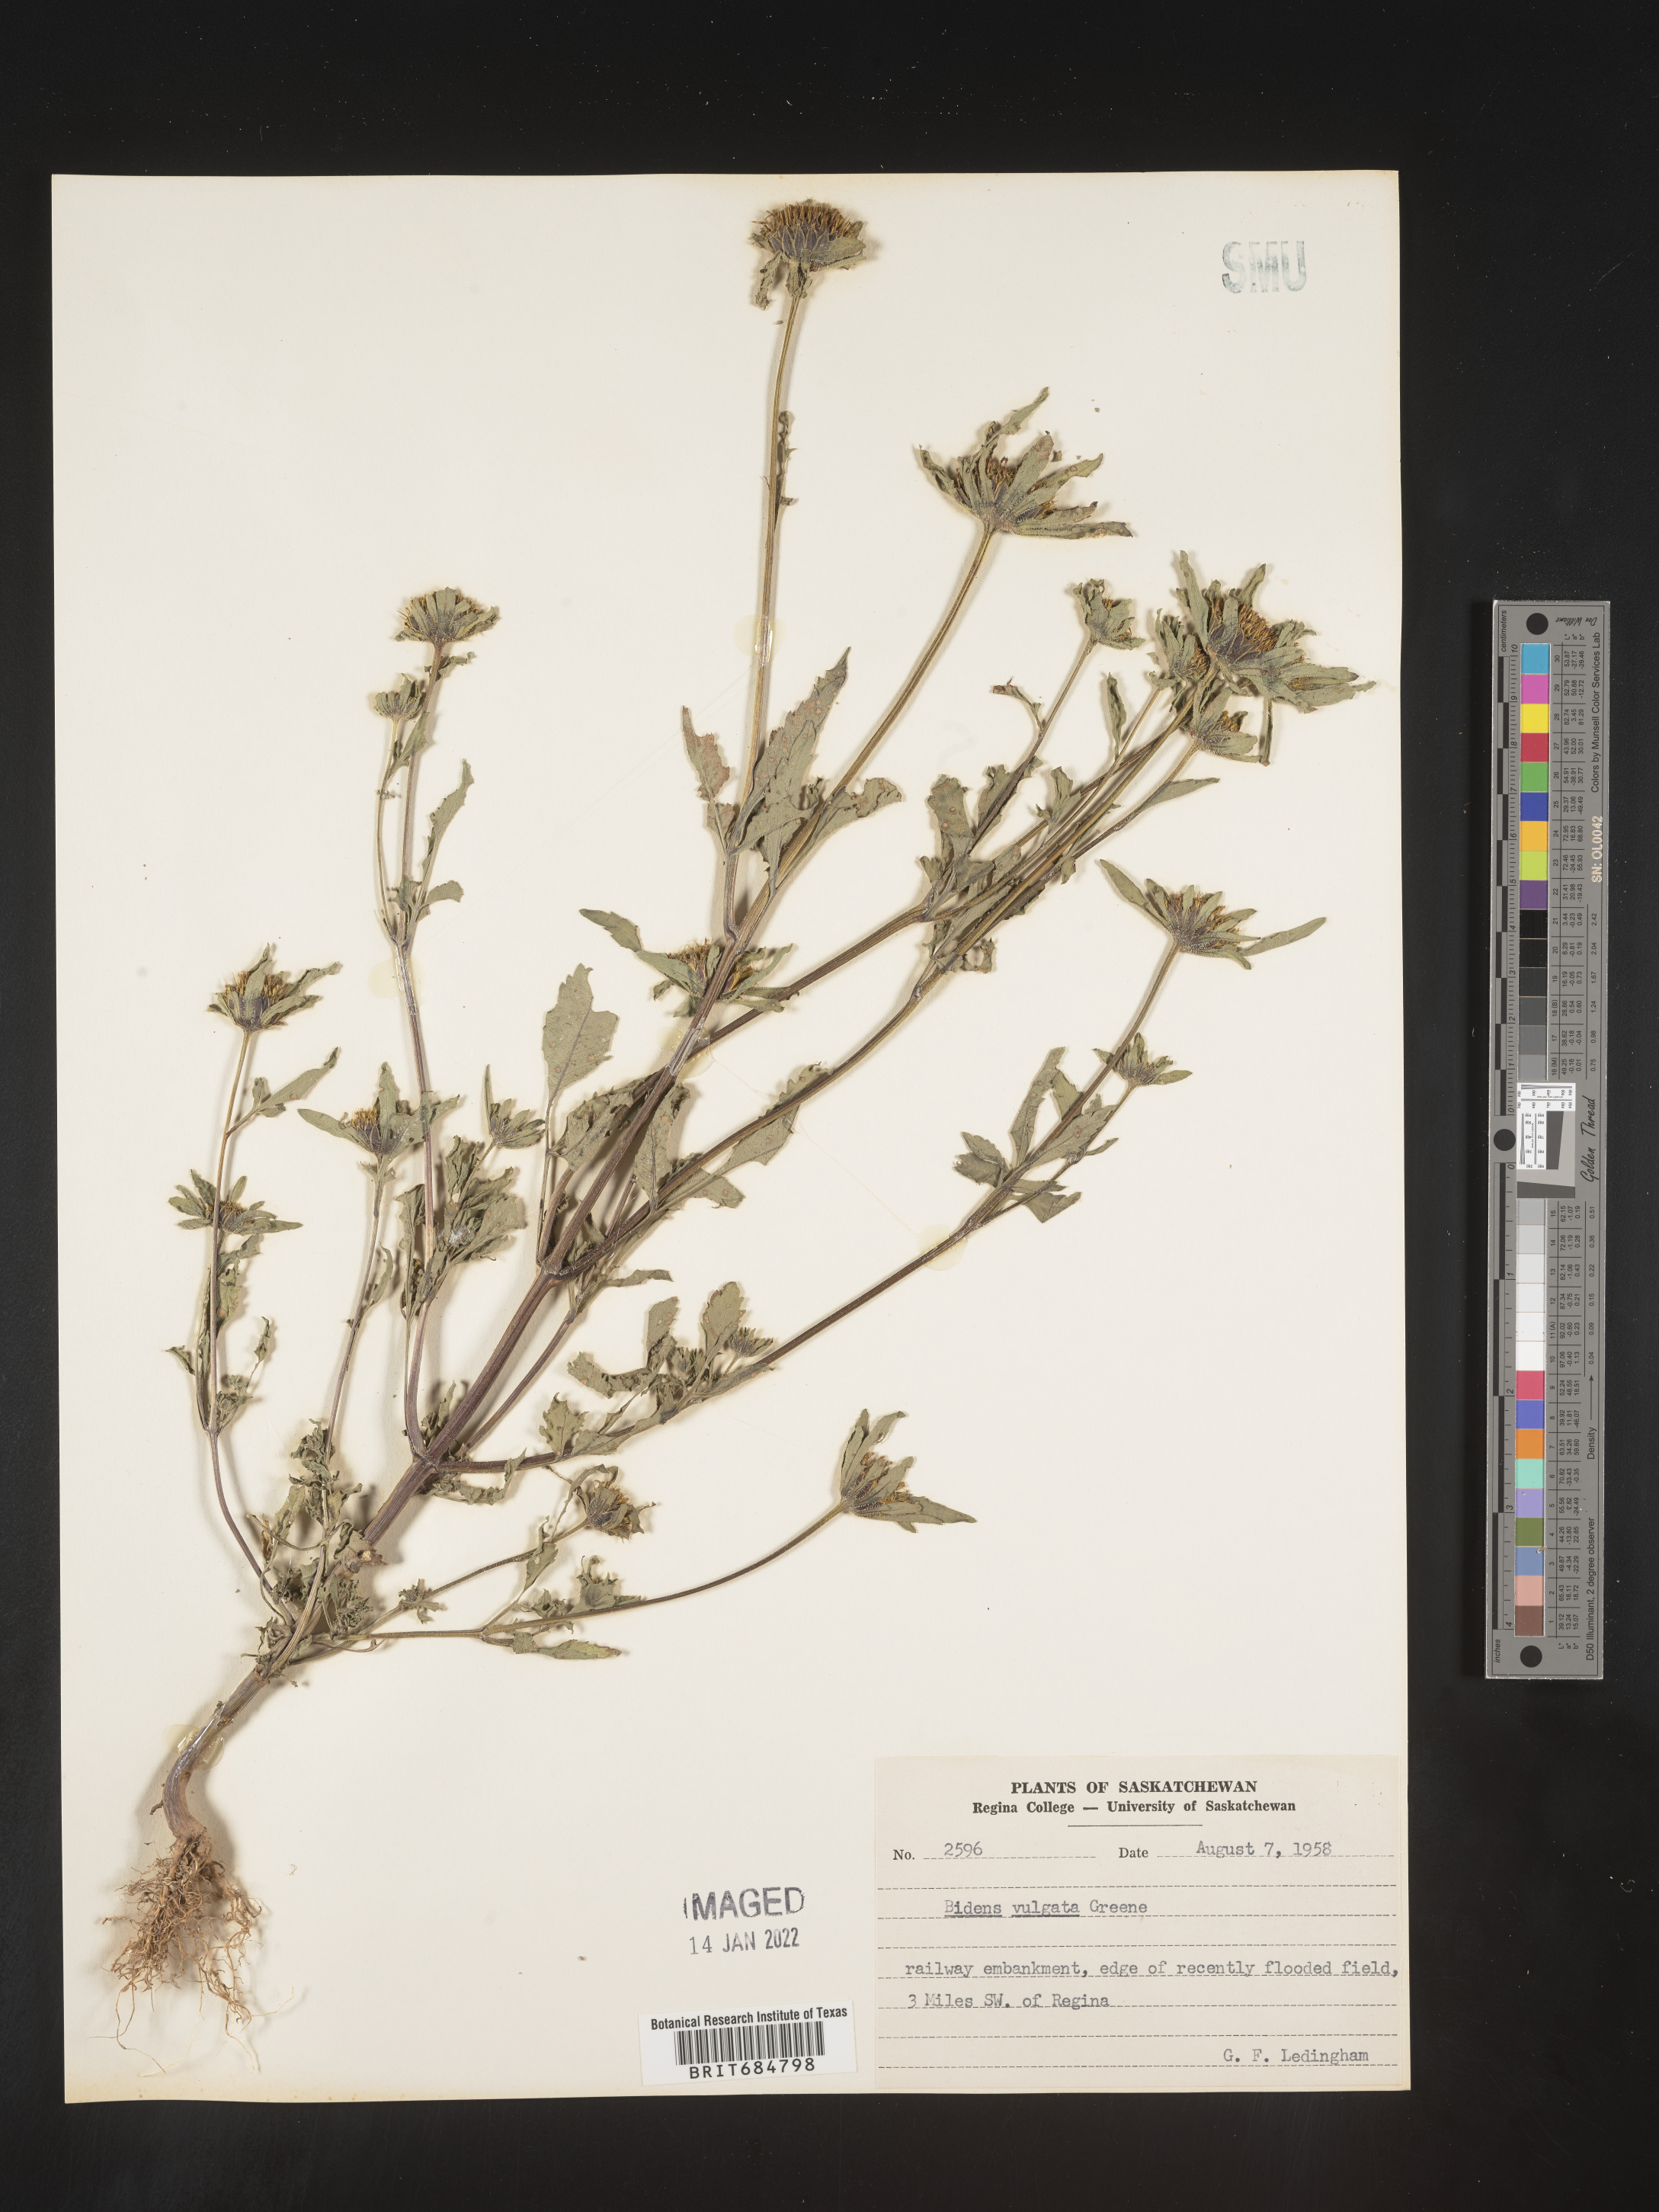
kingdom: Plantae
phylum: Tracheophyta
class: Magnoliopsida
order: Asterales
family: Asteraceae
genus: Bidens
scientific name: Bidens vulgata
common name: Tall beggarticks
